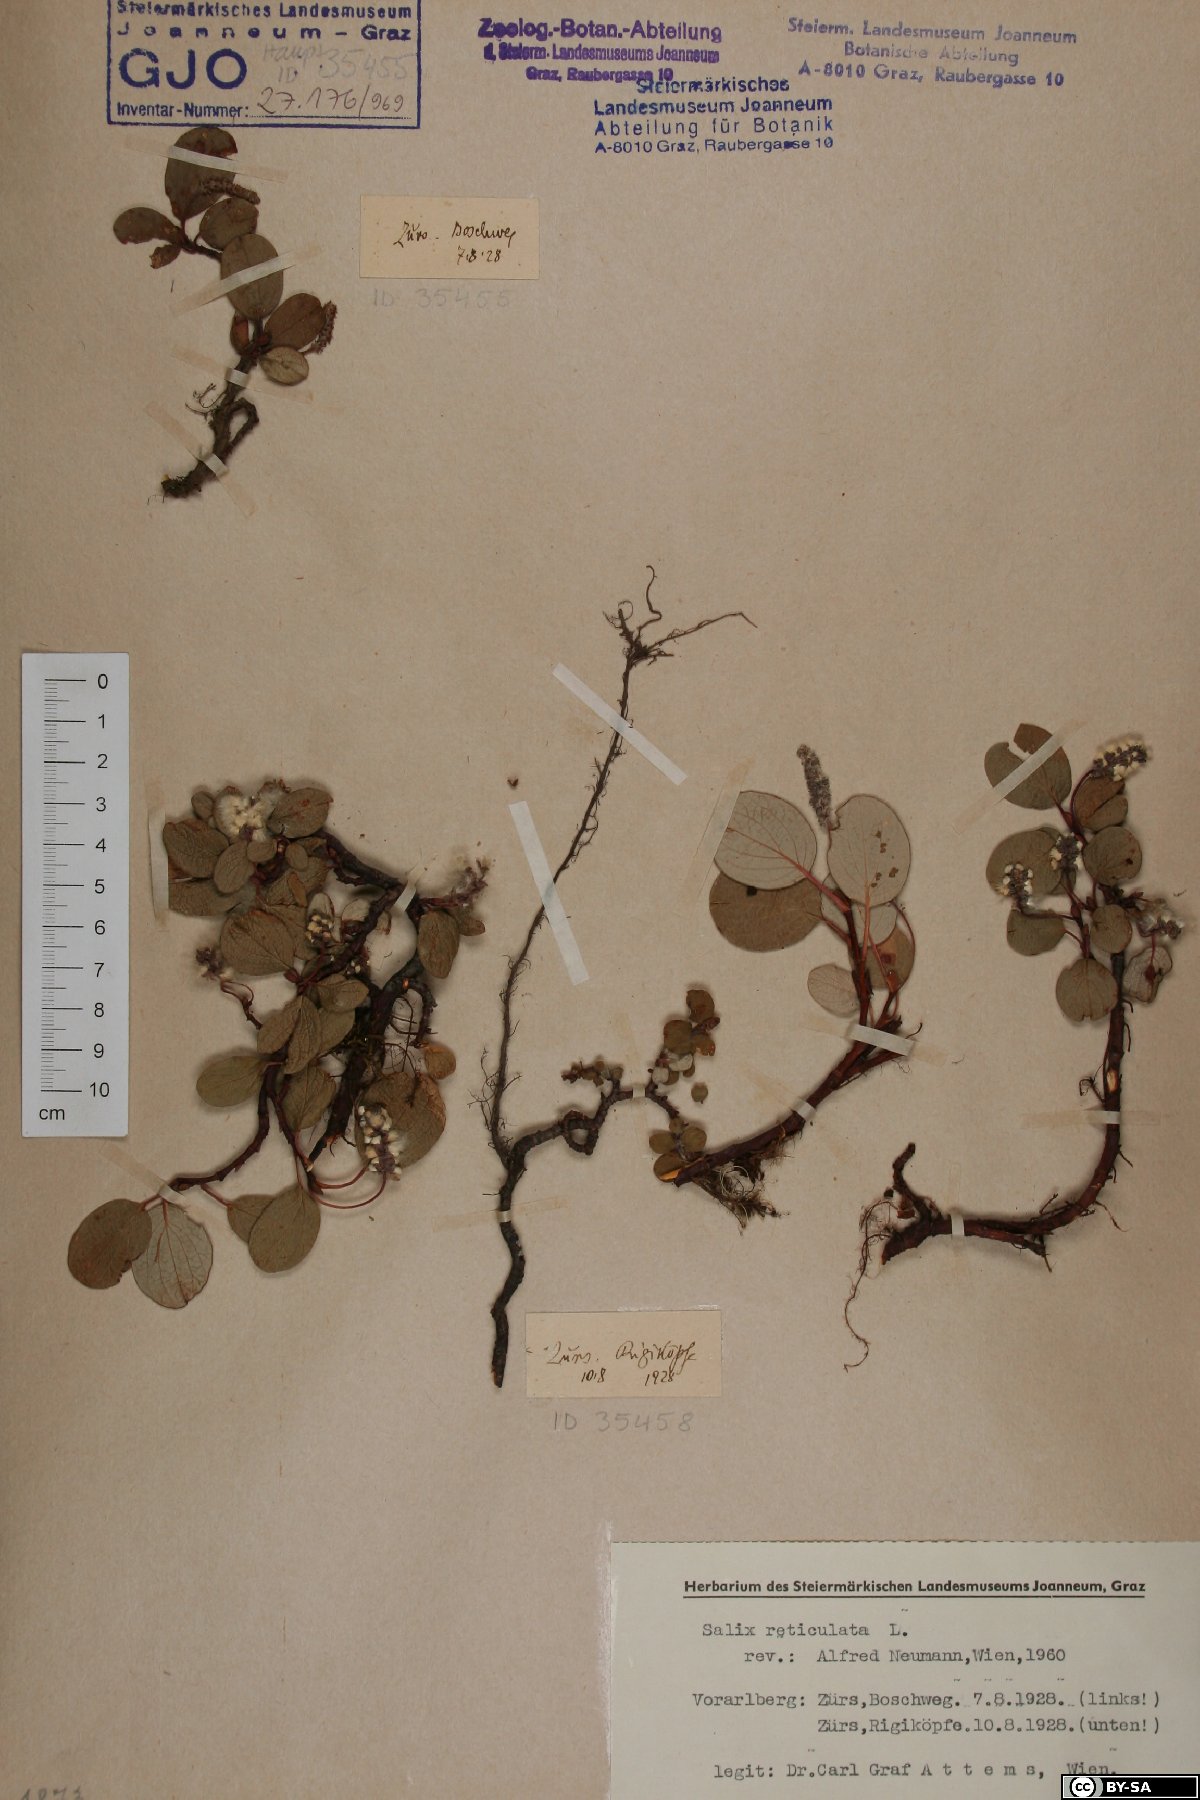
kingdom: Plantae
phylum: Tracheophyta
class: Magnoliopsida
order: Malpighiales
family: Salicaceae
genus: Salix
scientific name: Salix reticulata
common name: Net-leaved willow
